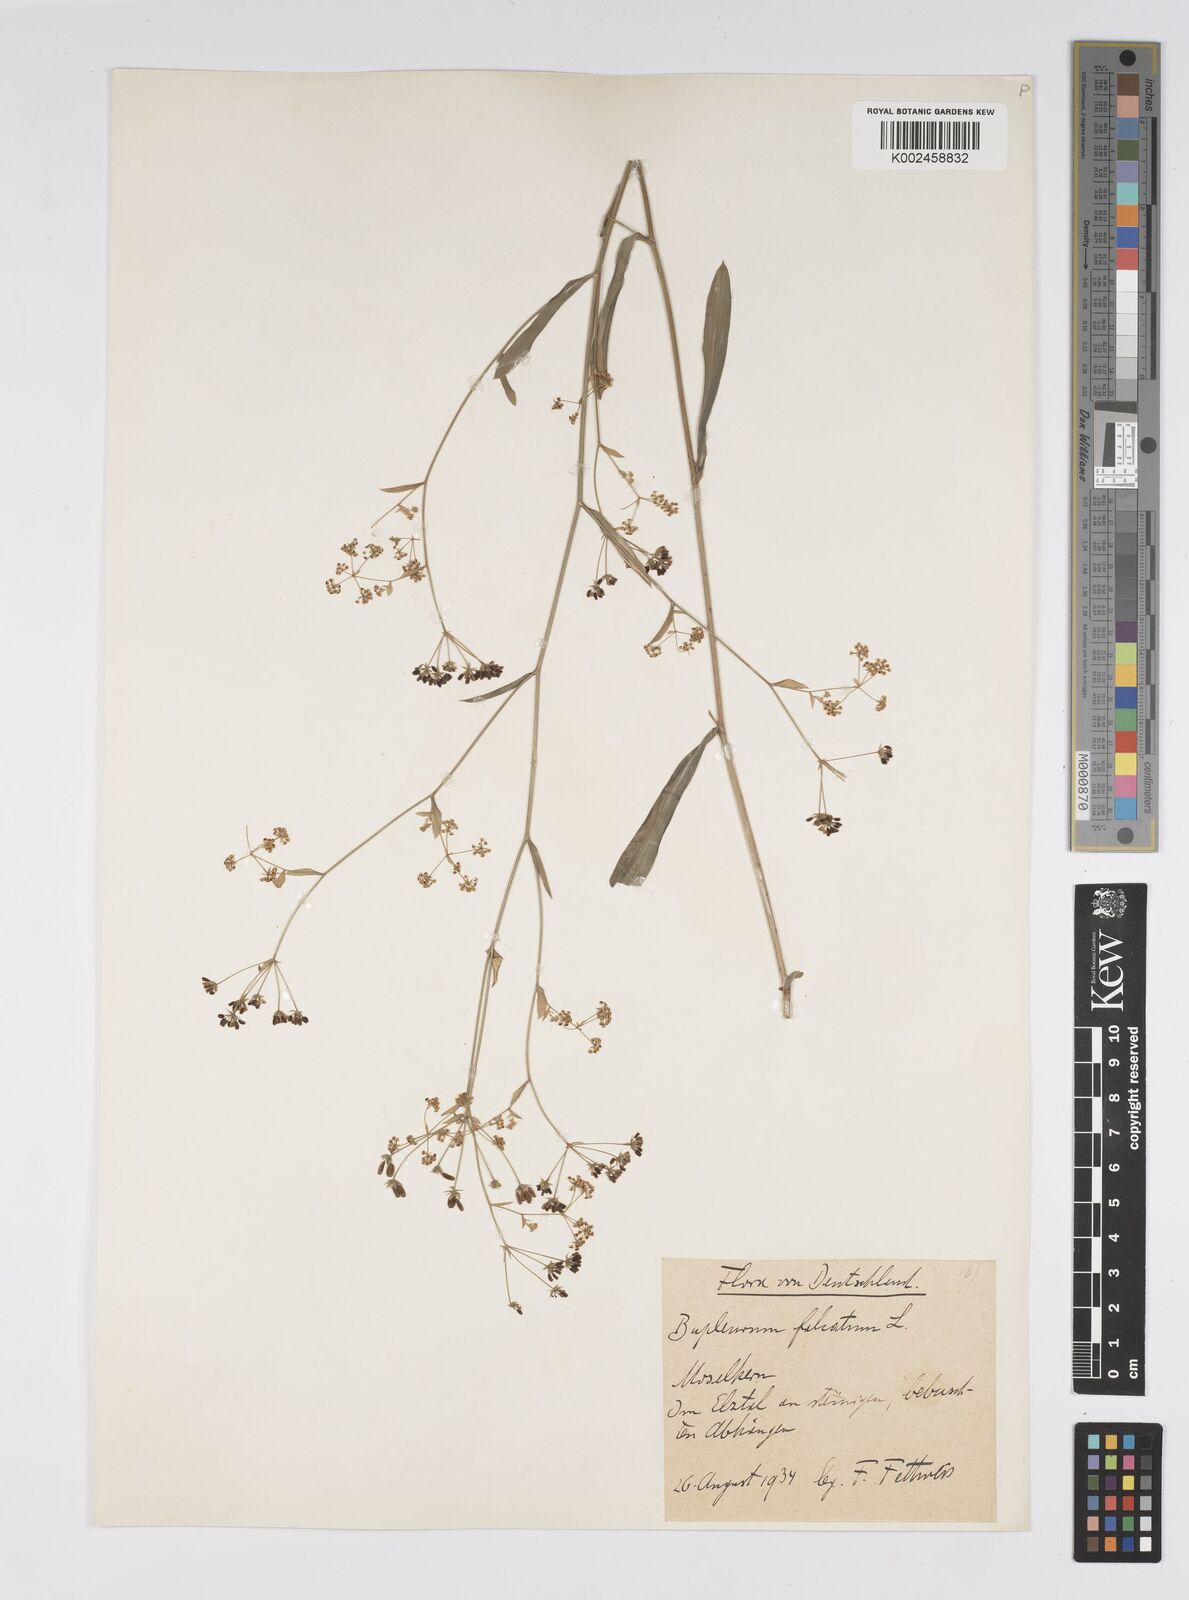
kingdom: Plantae
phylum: Tracheophyta
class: Magnoliopsida
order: Apiales
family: Apiaceae
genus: Bupleurum
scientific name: Bupleurum falcatum
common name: Sickle-leaved hare's-ear
